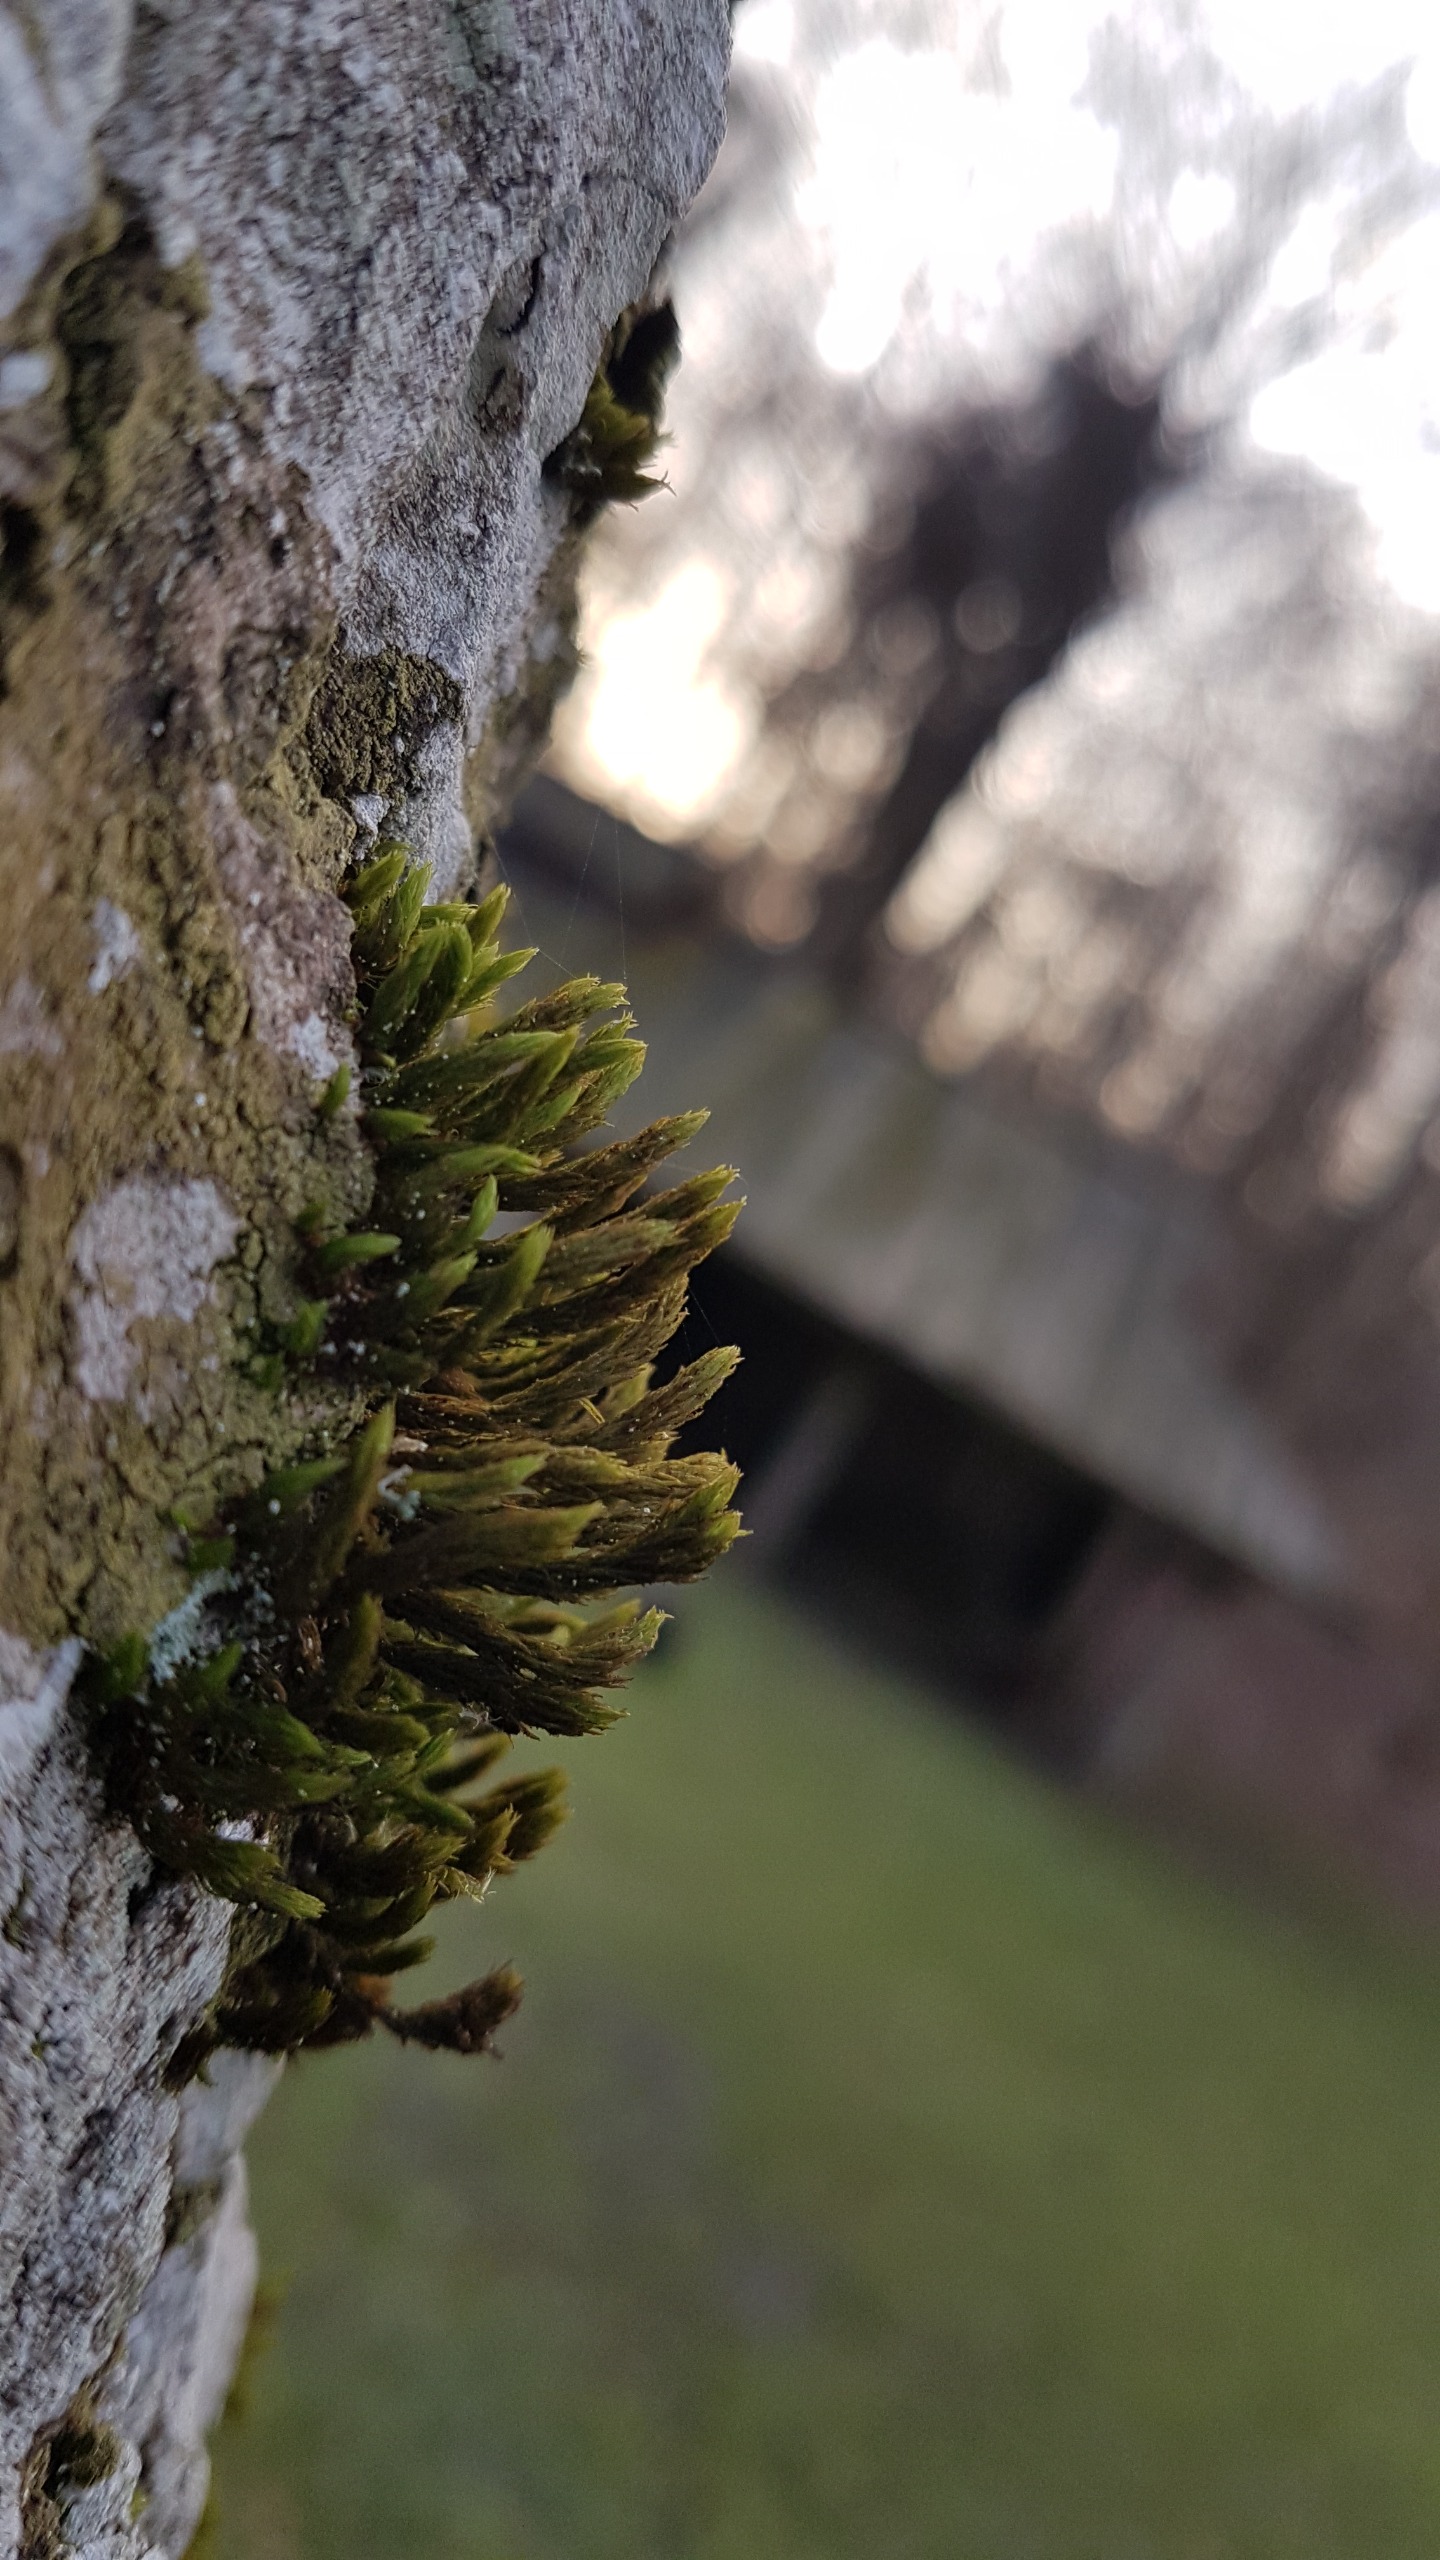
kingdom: Plantae
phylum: Bryophyta
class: Bryopsida
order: Orthotrichales
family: Orthotrichaceae
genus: Pulvigera
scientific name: Pulvigera lyellii
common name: Stor furehætte
